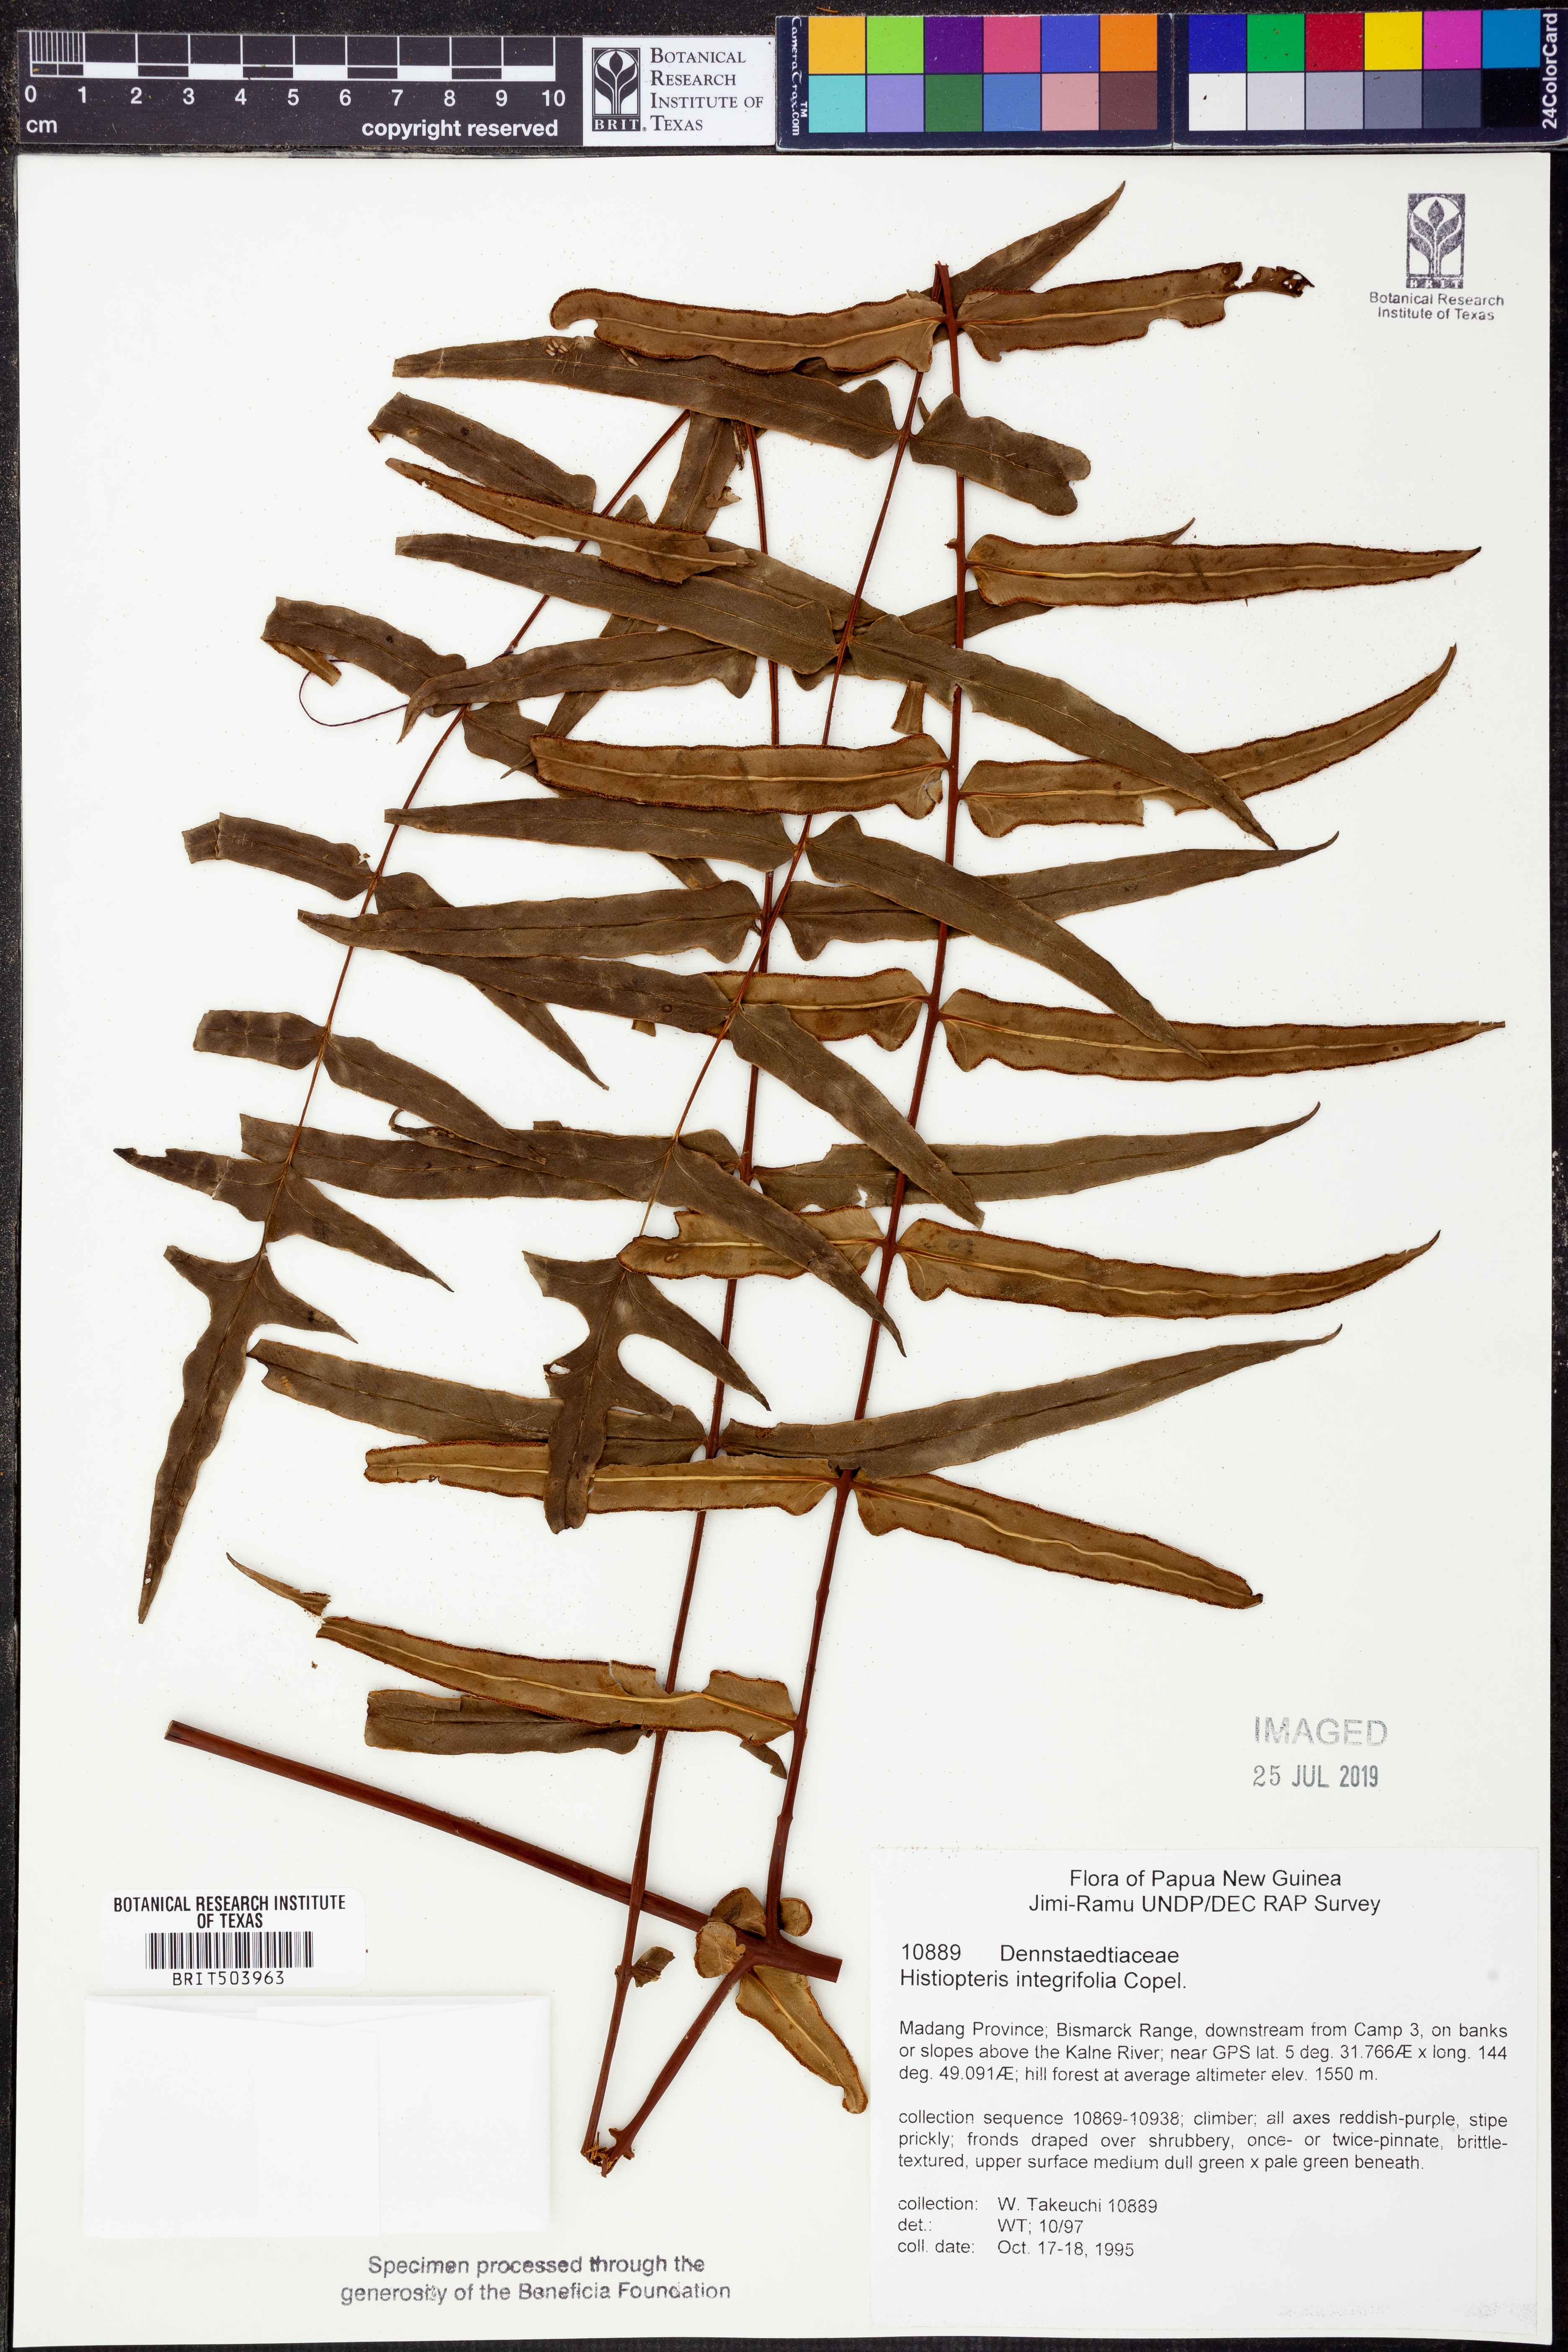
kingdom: Plantae
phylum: Tracheophyta
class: Polypodiopsida
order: Polypodiales
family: Dennstaedtiaceae
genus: Histiopteris
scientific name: Histiopteris stipulacea
